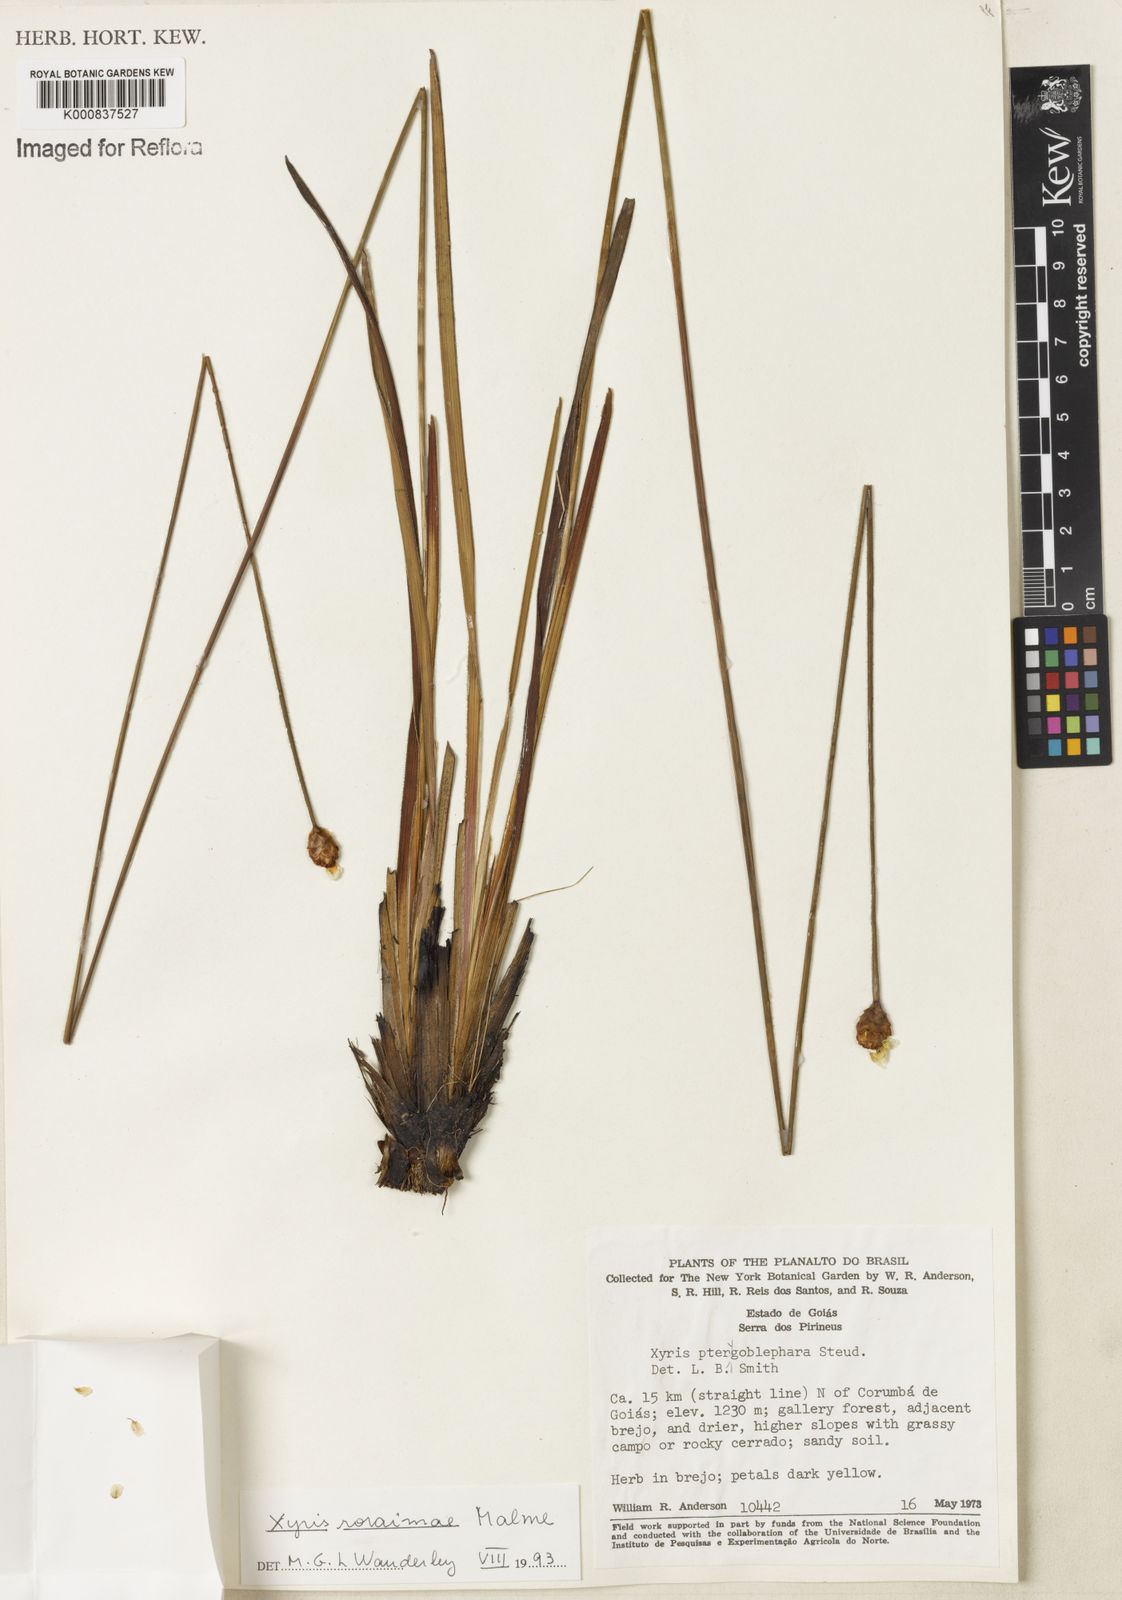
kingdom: Plantae
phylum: Tracheophyta
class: Liliopsida
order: Poales
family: Xyridaceae
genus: Xyris
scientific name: Xyris roraimae
